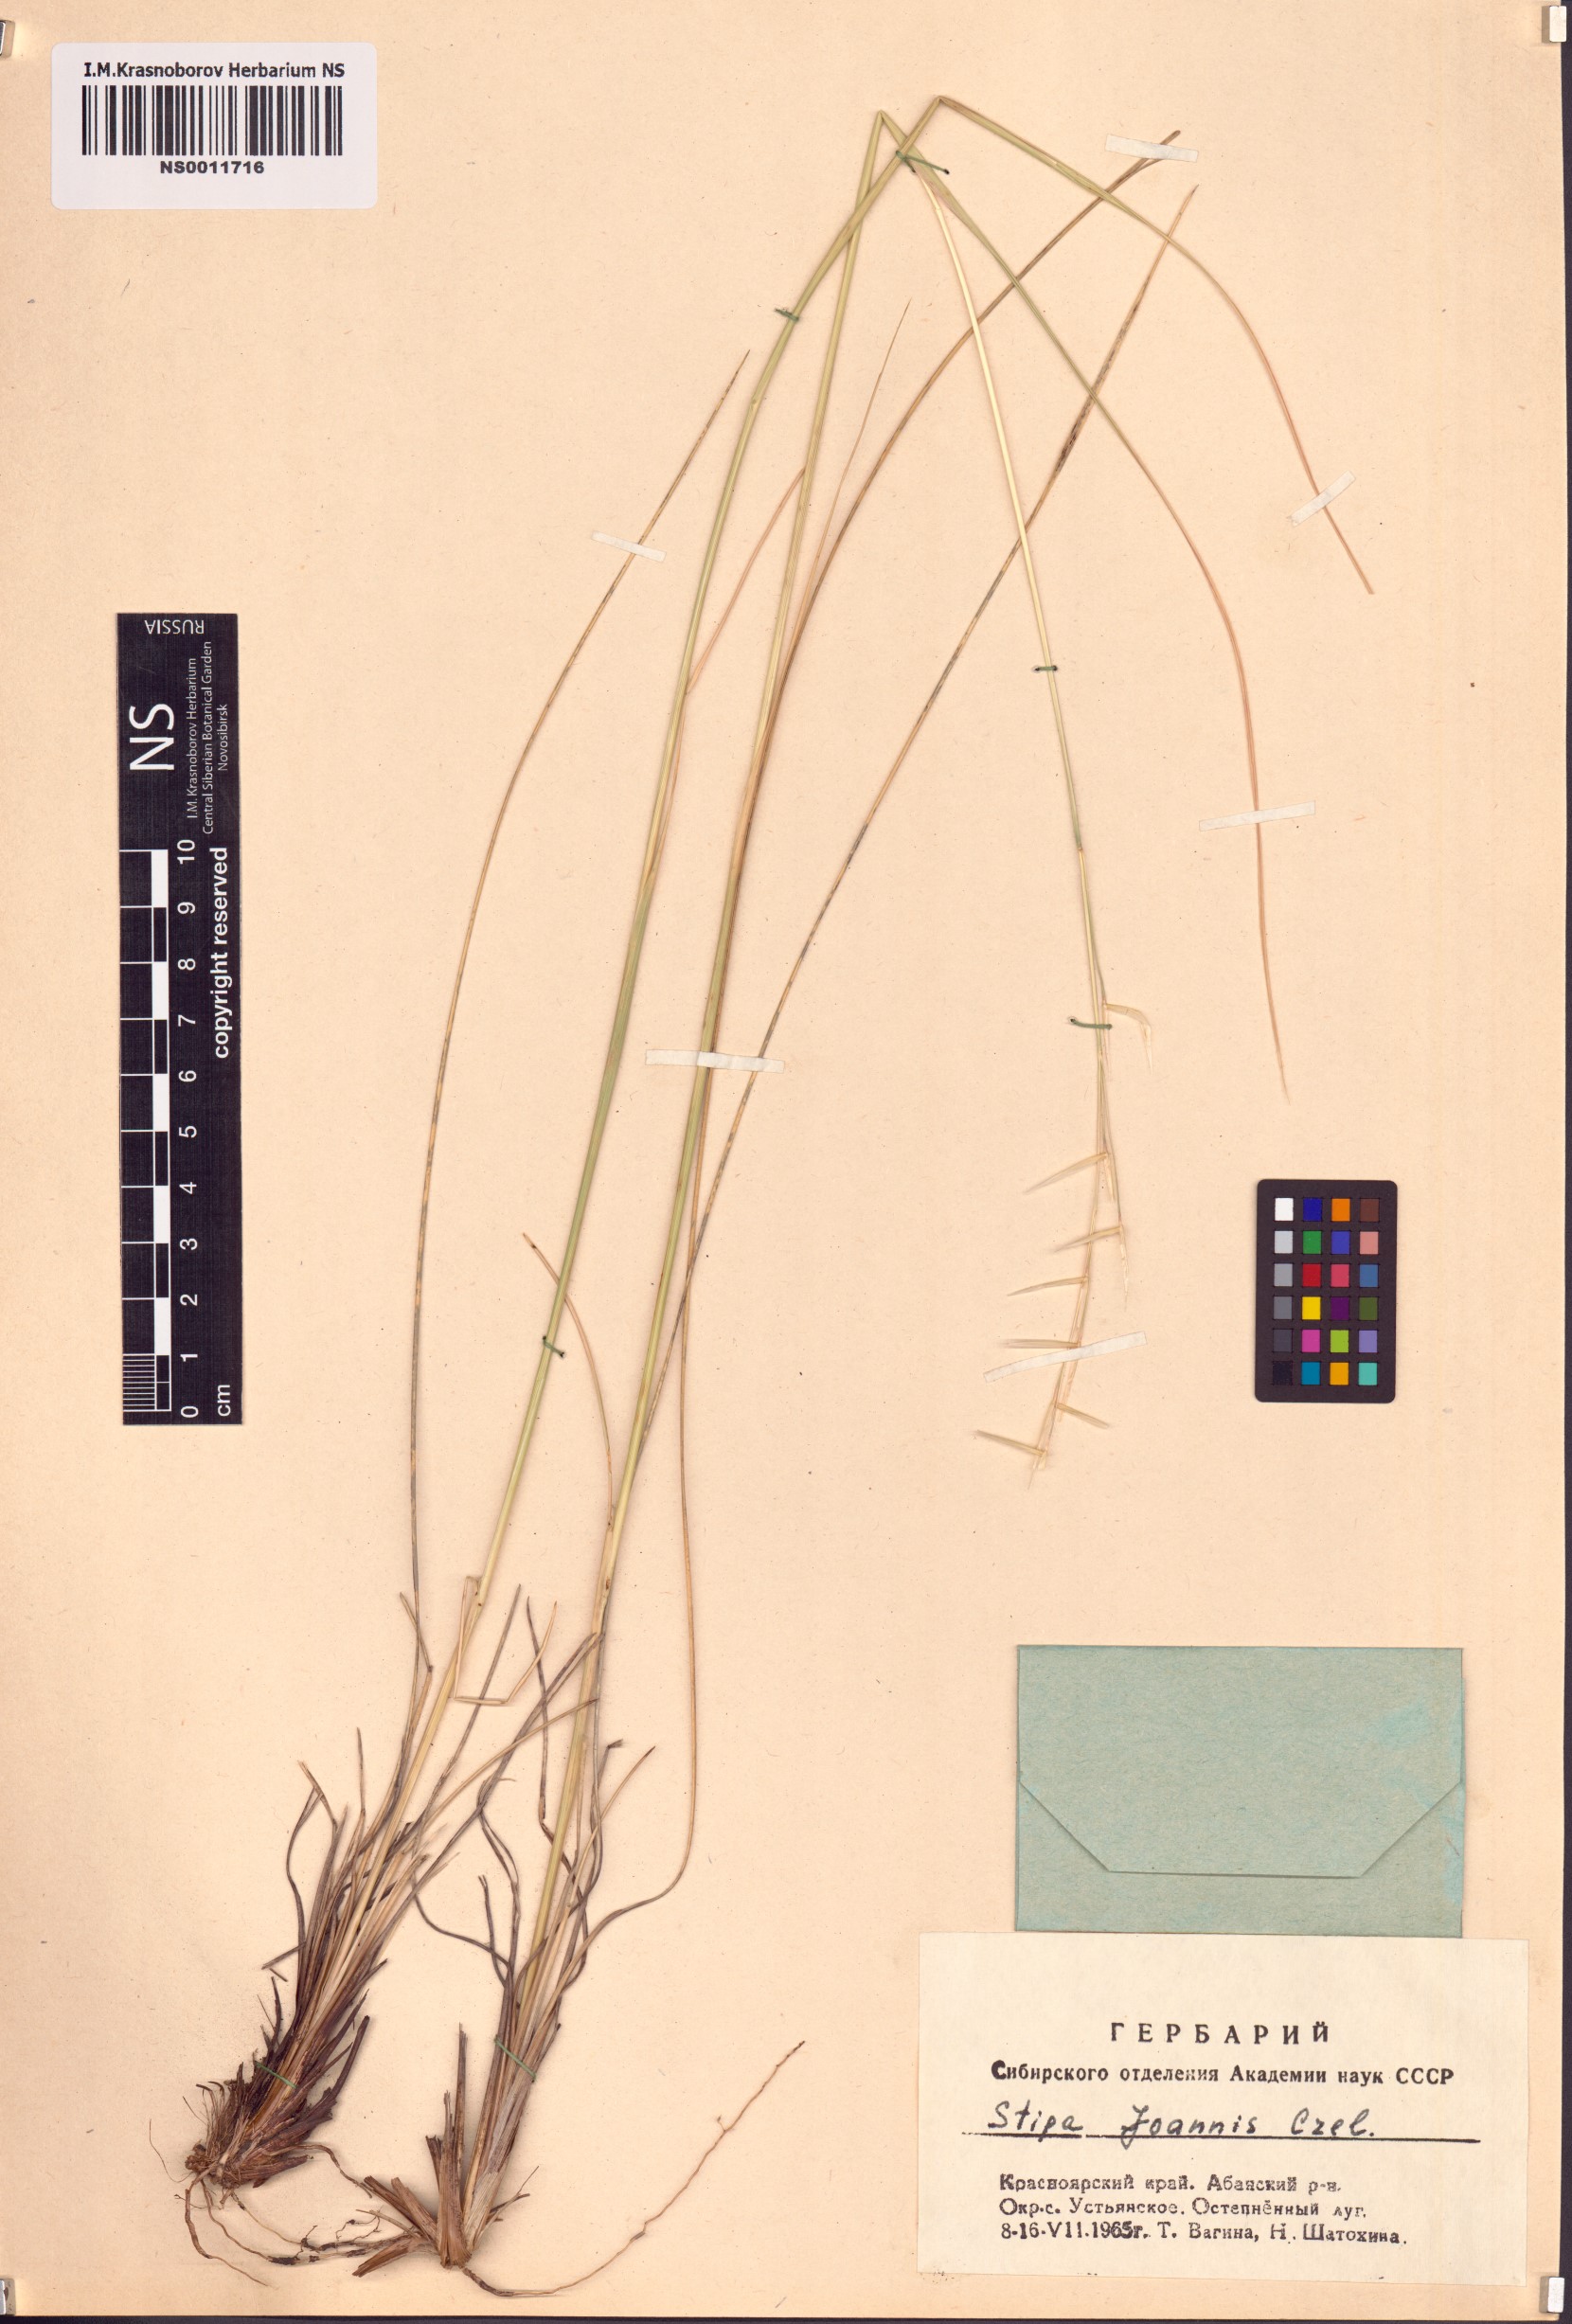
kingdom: Plantae
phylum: Tracheophyta
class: Liliopsida
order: Poales
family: Poaceae
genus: Stipa
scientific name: Stipa pennata
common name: European feather grass
